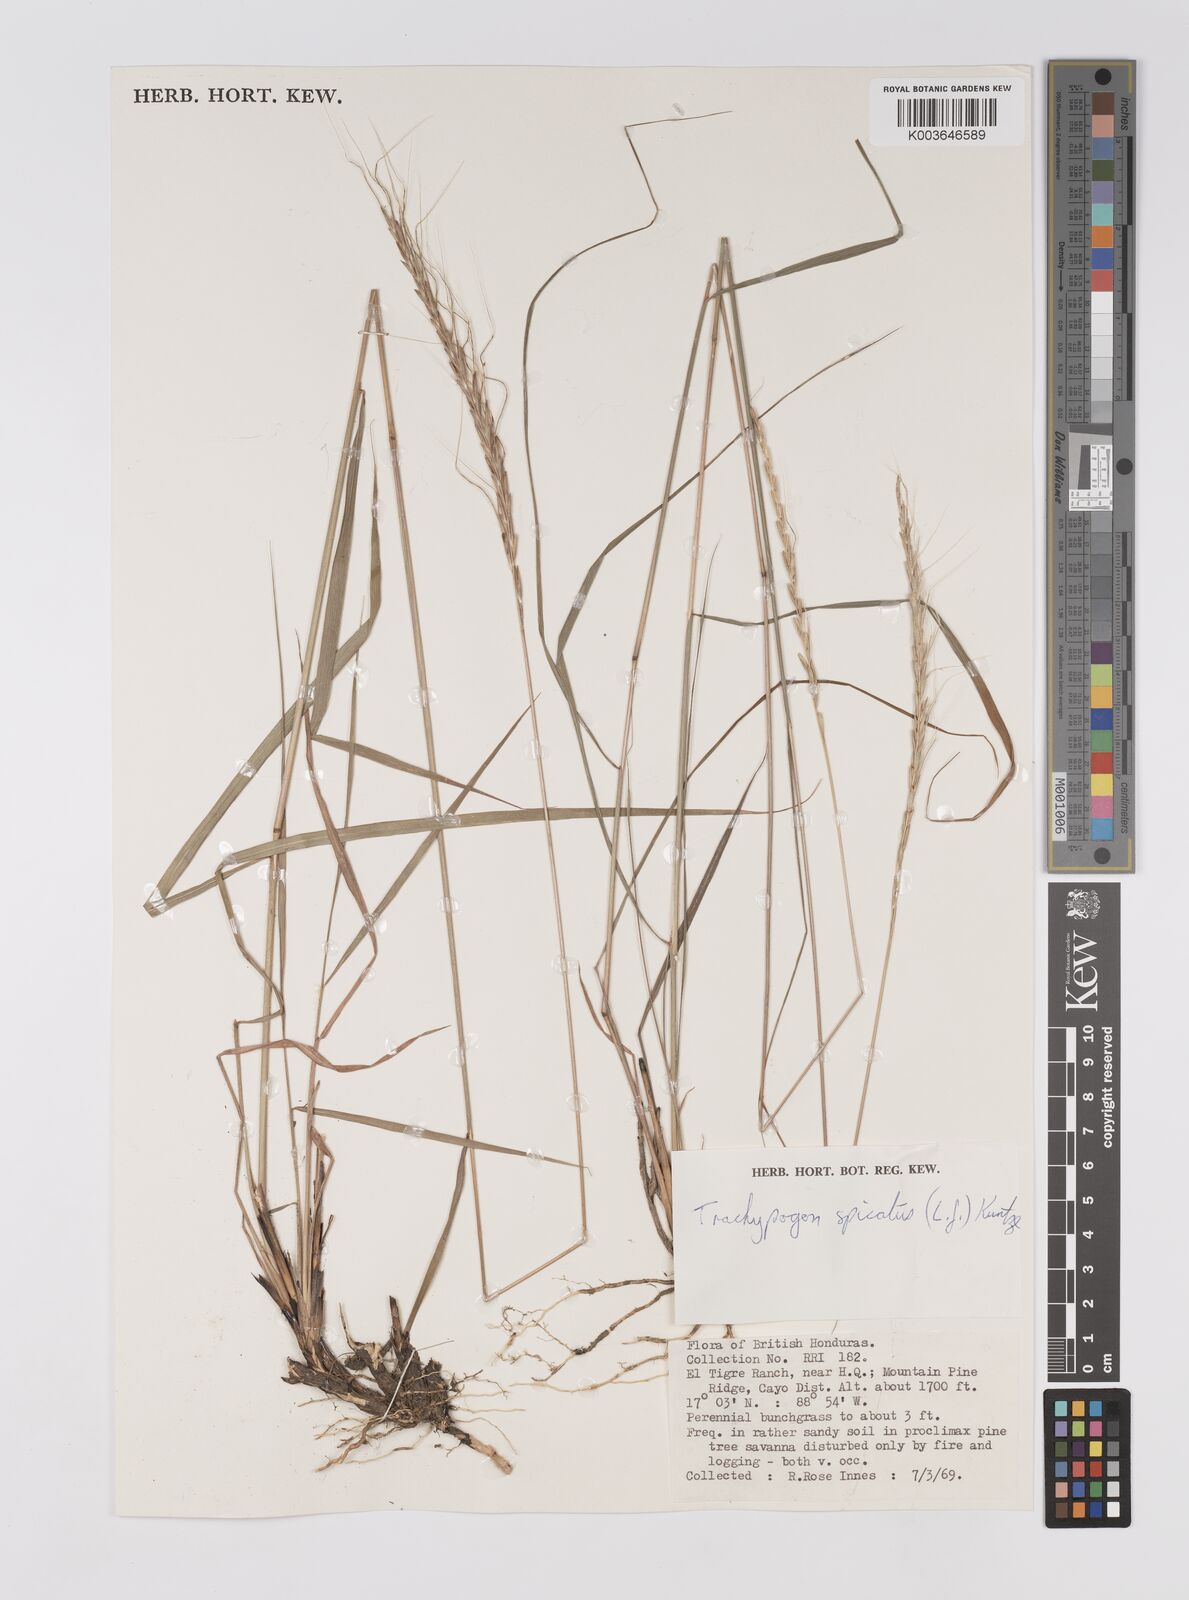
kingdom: Plantae
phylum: Tracheophyta
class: Liliopsida
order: Poales
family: Poaceae
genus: Trachypogon
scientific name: Trachypogon spicatus
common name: Crinkle-awn
